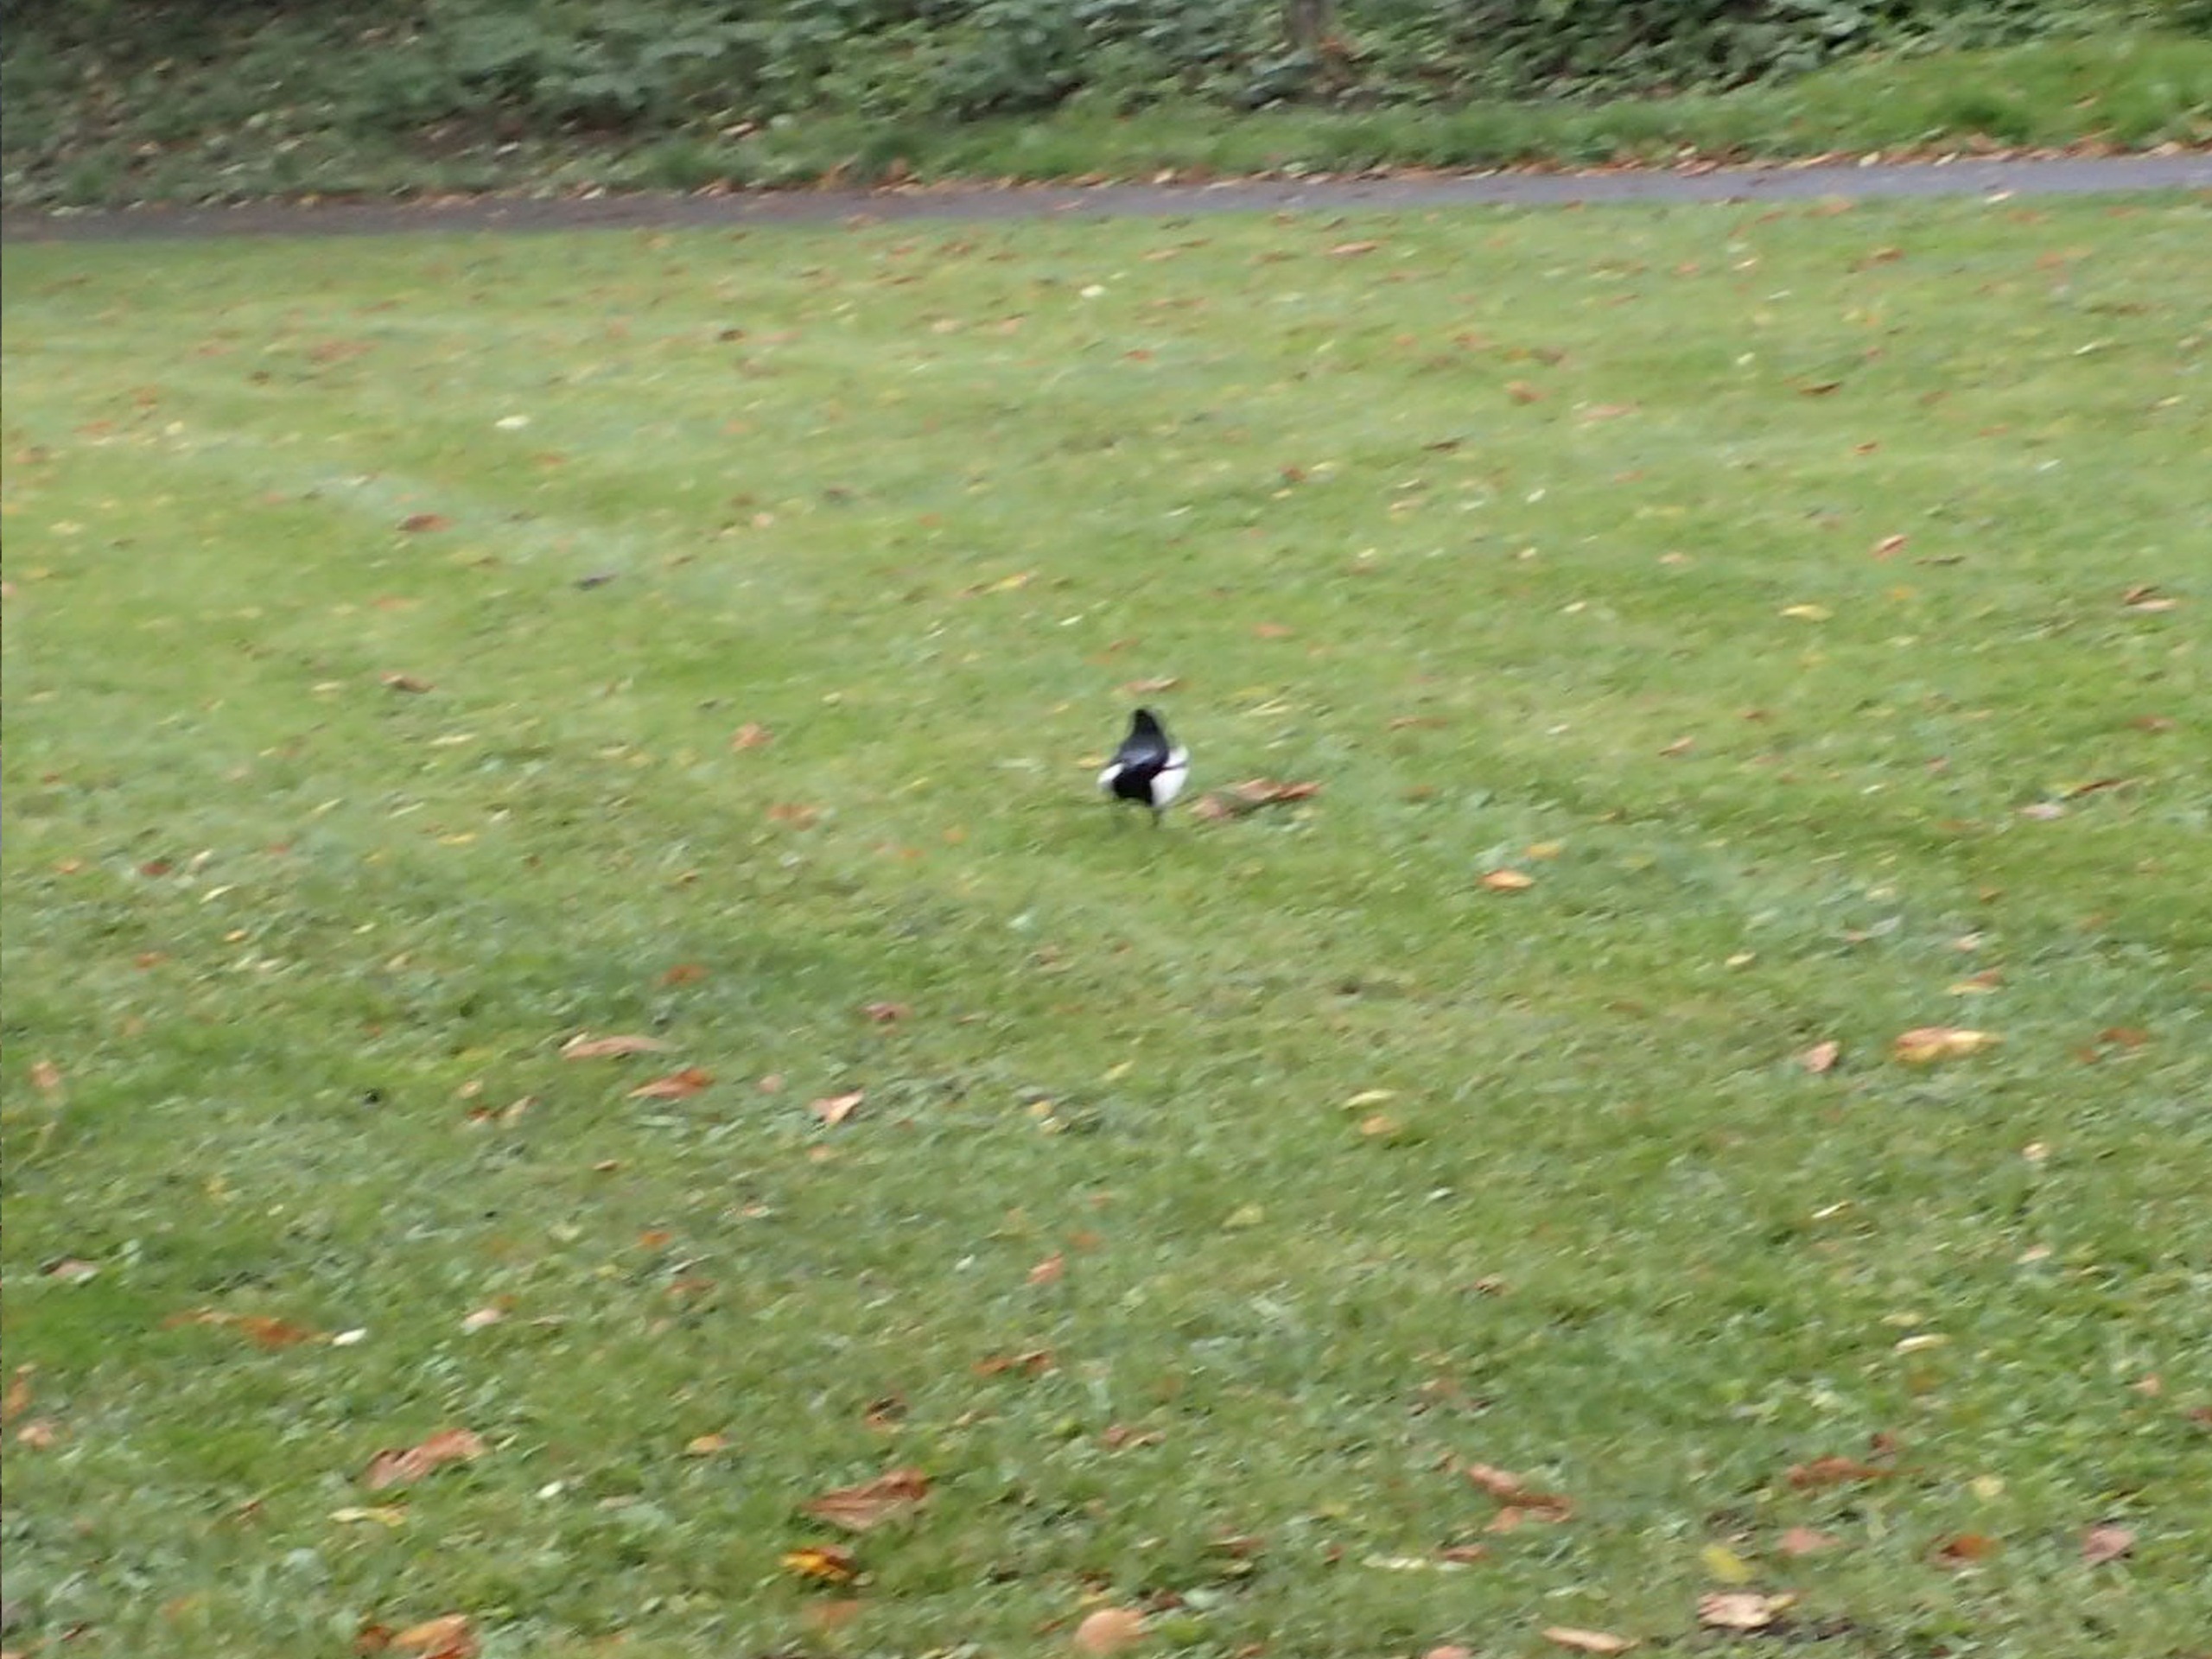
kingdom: Animalia
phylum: Chordata
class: Aves
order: Passeriformes
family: Corvidae
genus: Pica
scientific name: Pica pica
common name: Husskade
